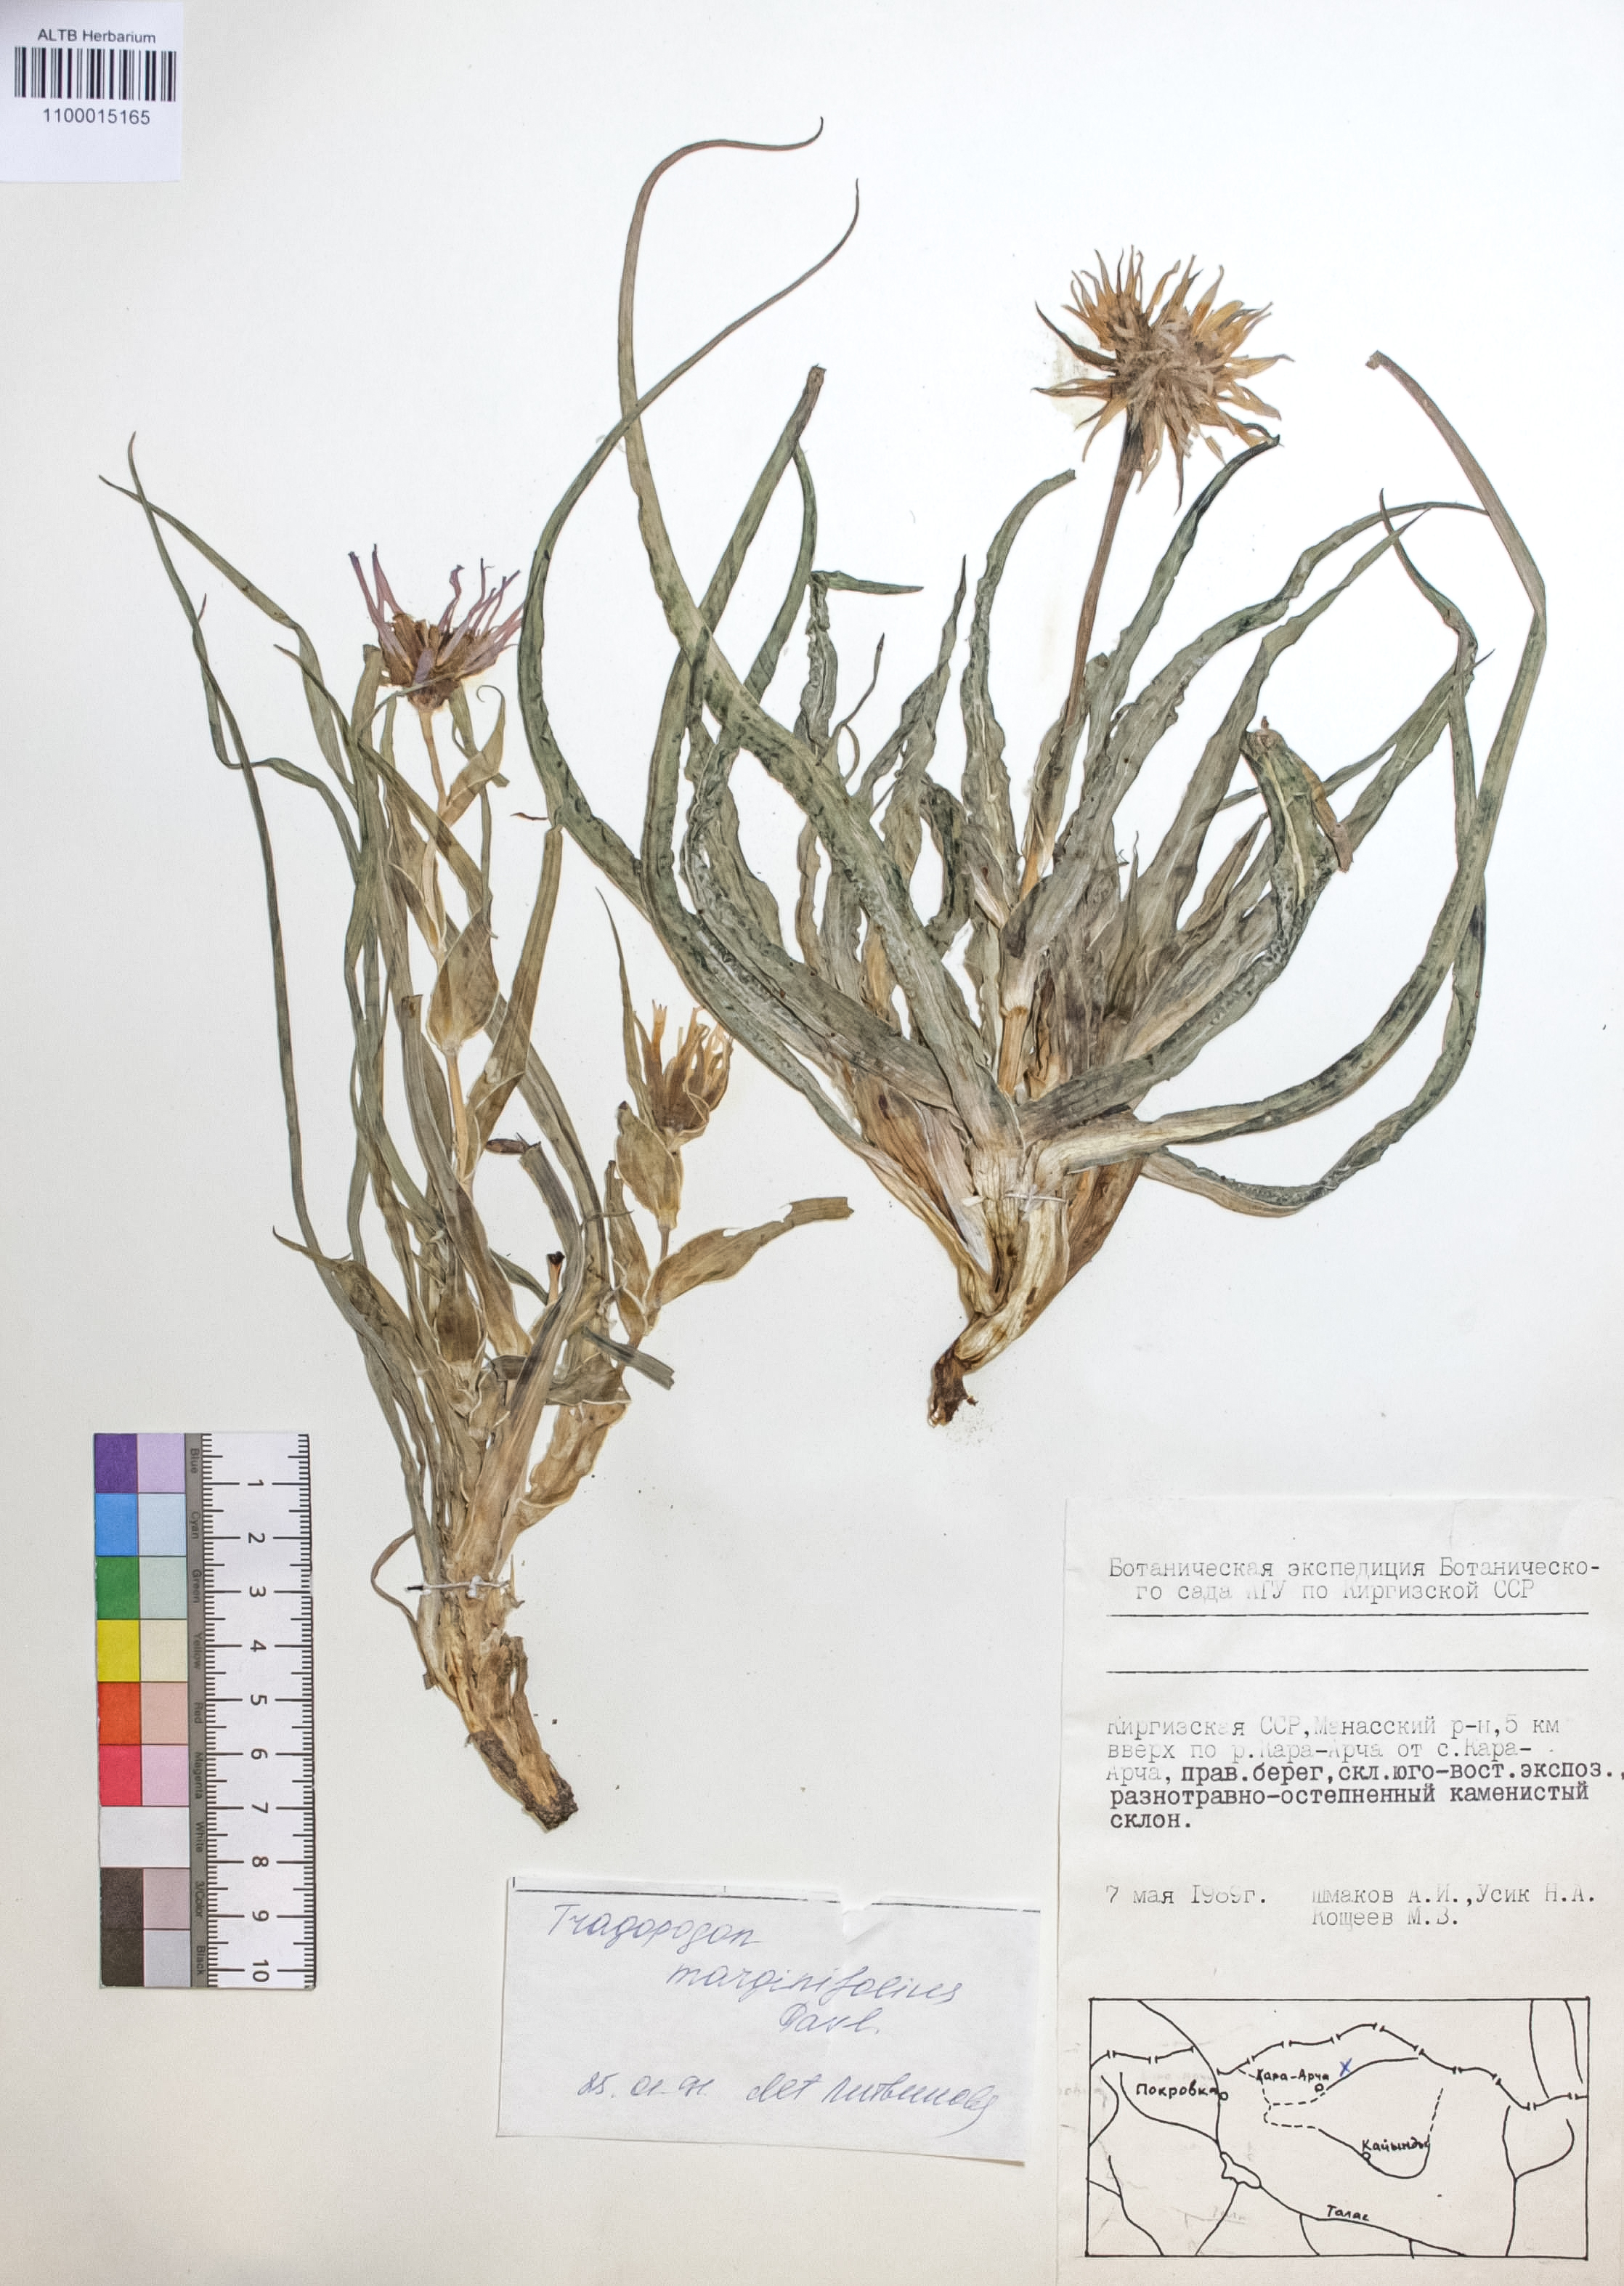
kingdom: Plantae
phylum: Tracheophyta
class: Magnoliopsida
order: Asterales
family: Asteraceae
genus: Tragopogon
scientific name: Tragopogon marginifolius
